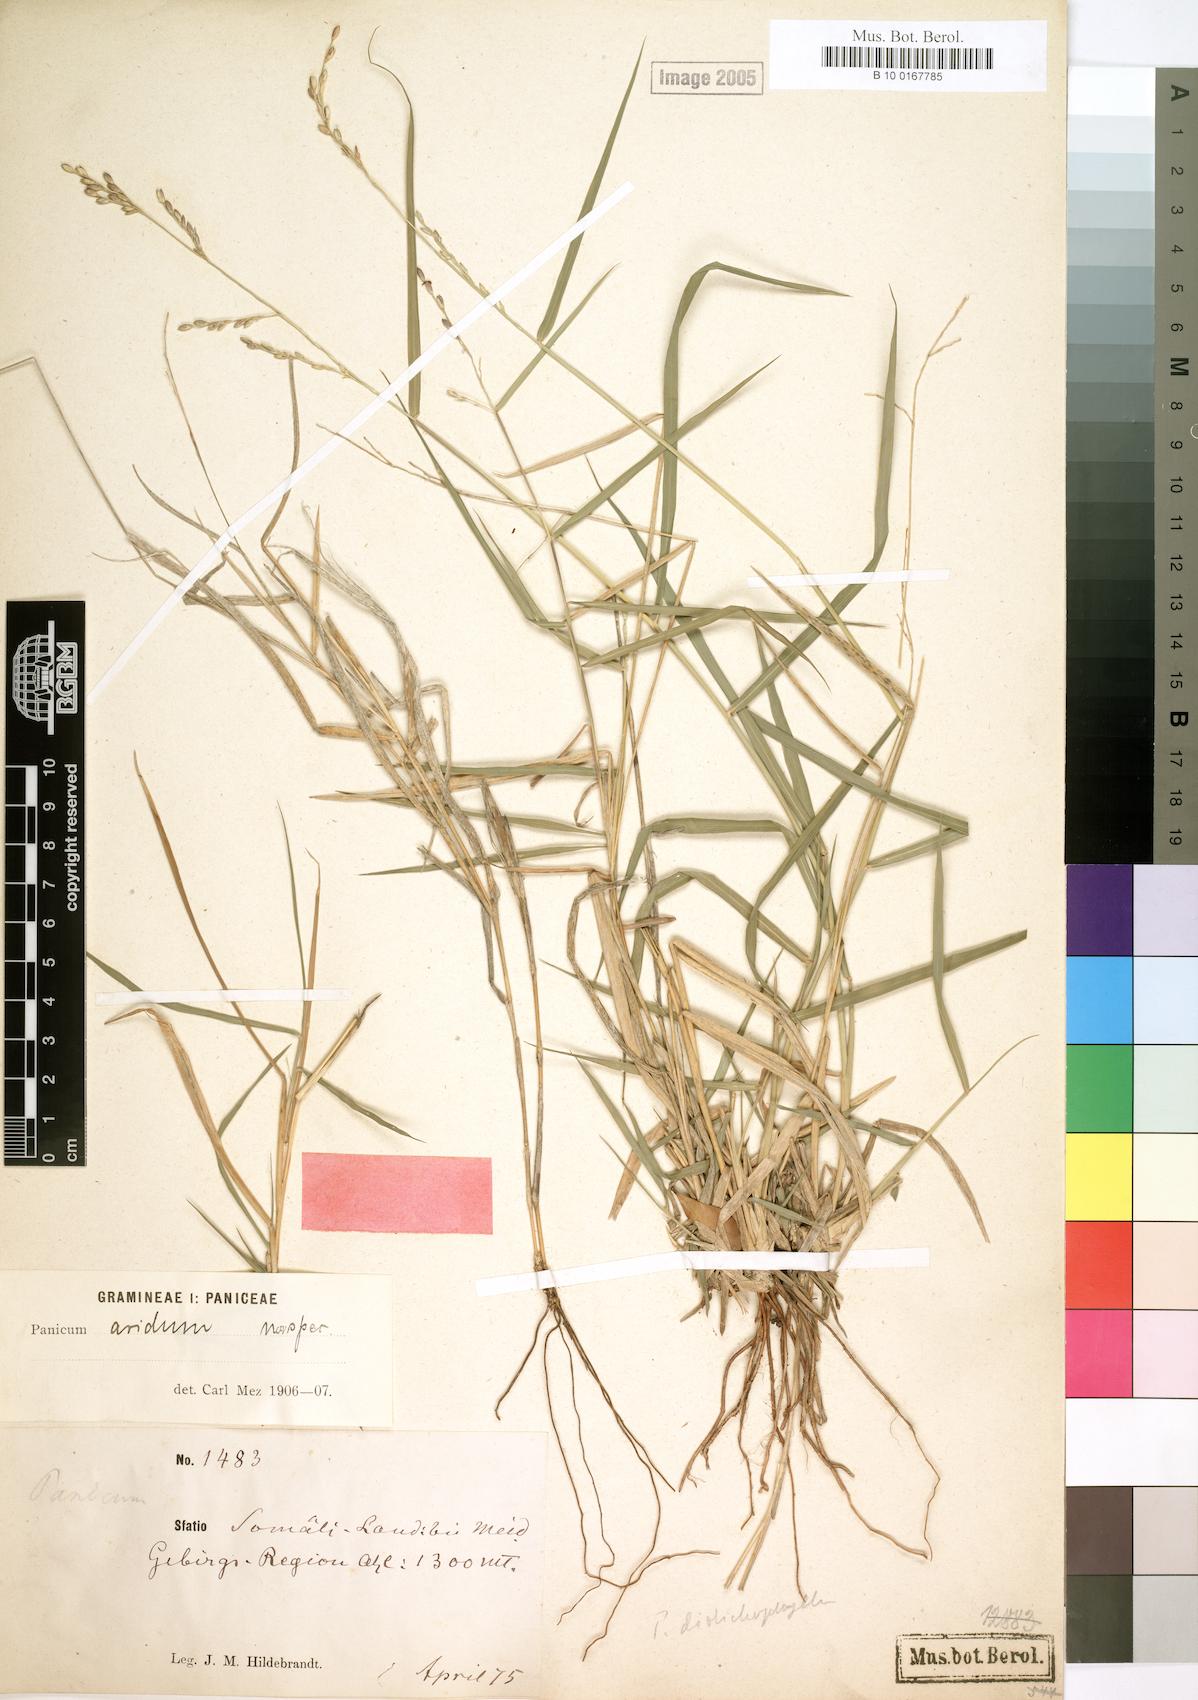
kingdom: Plantae
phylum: Tracheophyta
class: Liliopsida
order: Poales
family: Poaceae
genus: Urochloa
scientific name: Urochloa arida
